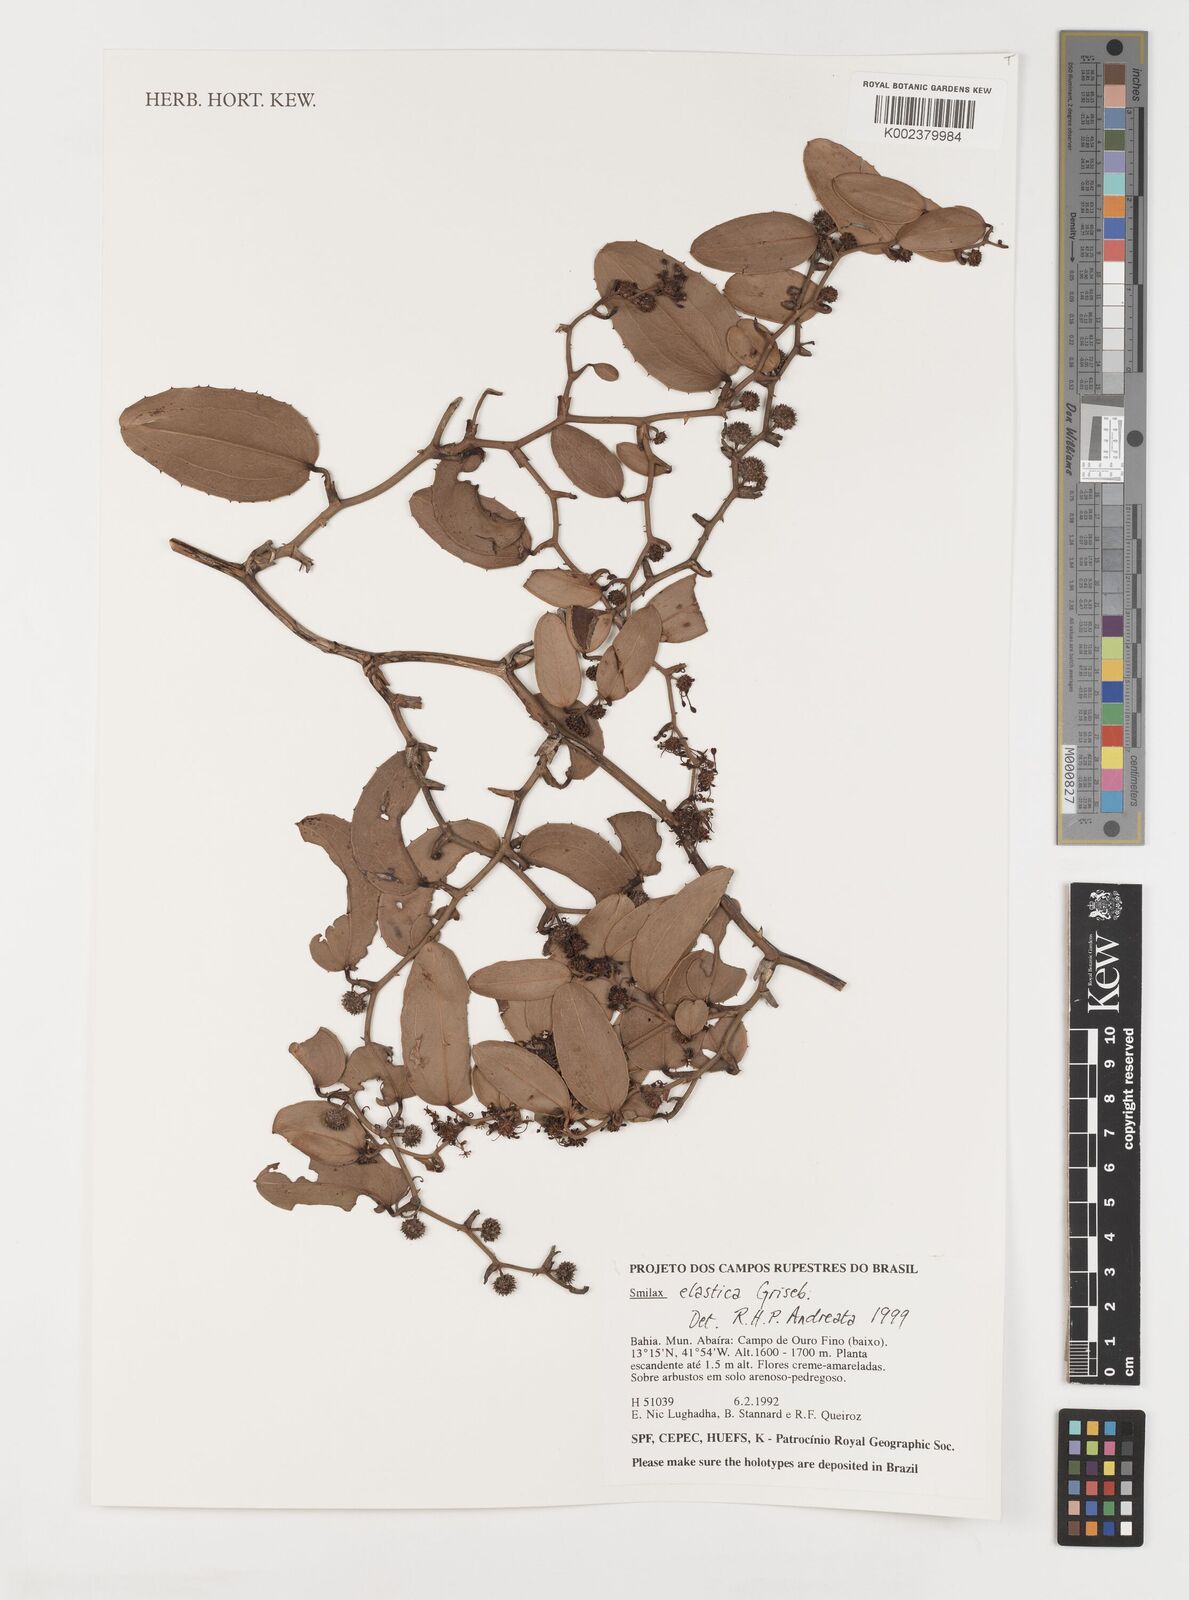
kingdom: Plantae
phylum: Tracheophyta
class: Liliopsida
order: Liliales
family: Smilacaceae
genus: Smilax
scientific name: Smilax elastica
